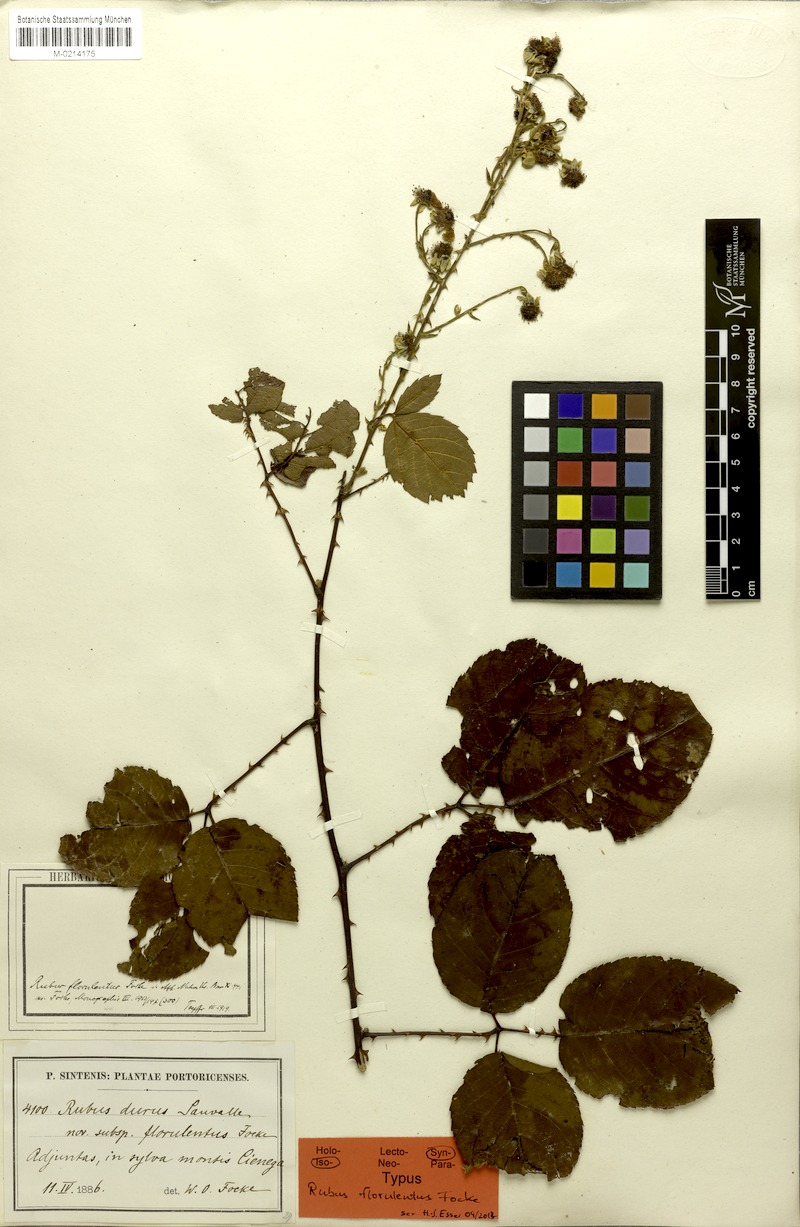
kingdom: Plantae
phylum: Tracheophyta
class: Magnoliopsida
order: Rosales
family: Rosaceae
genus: Rubus
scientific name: Rubus florulentus
